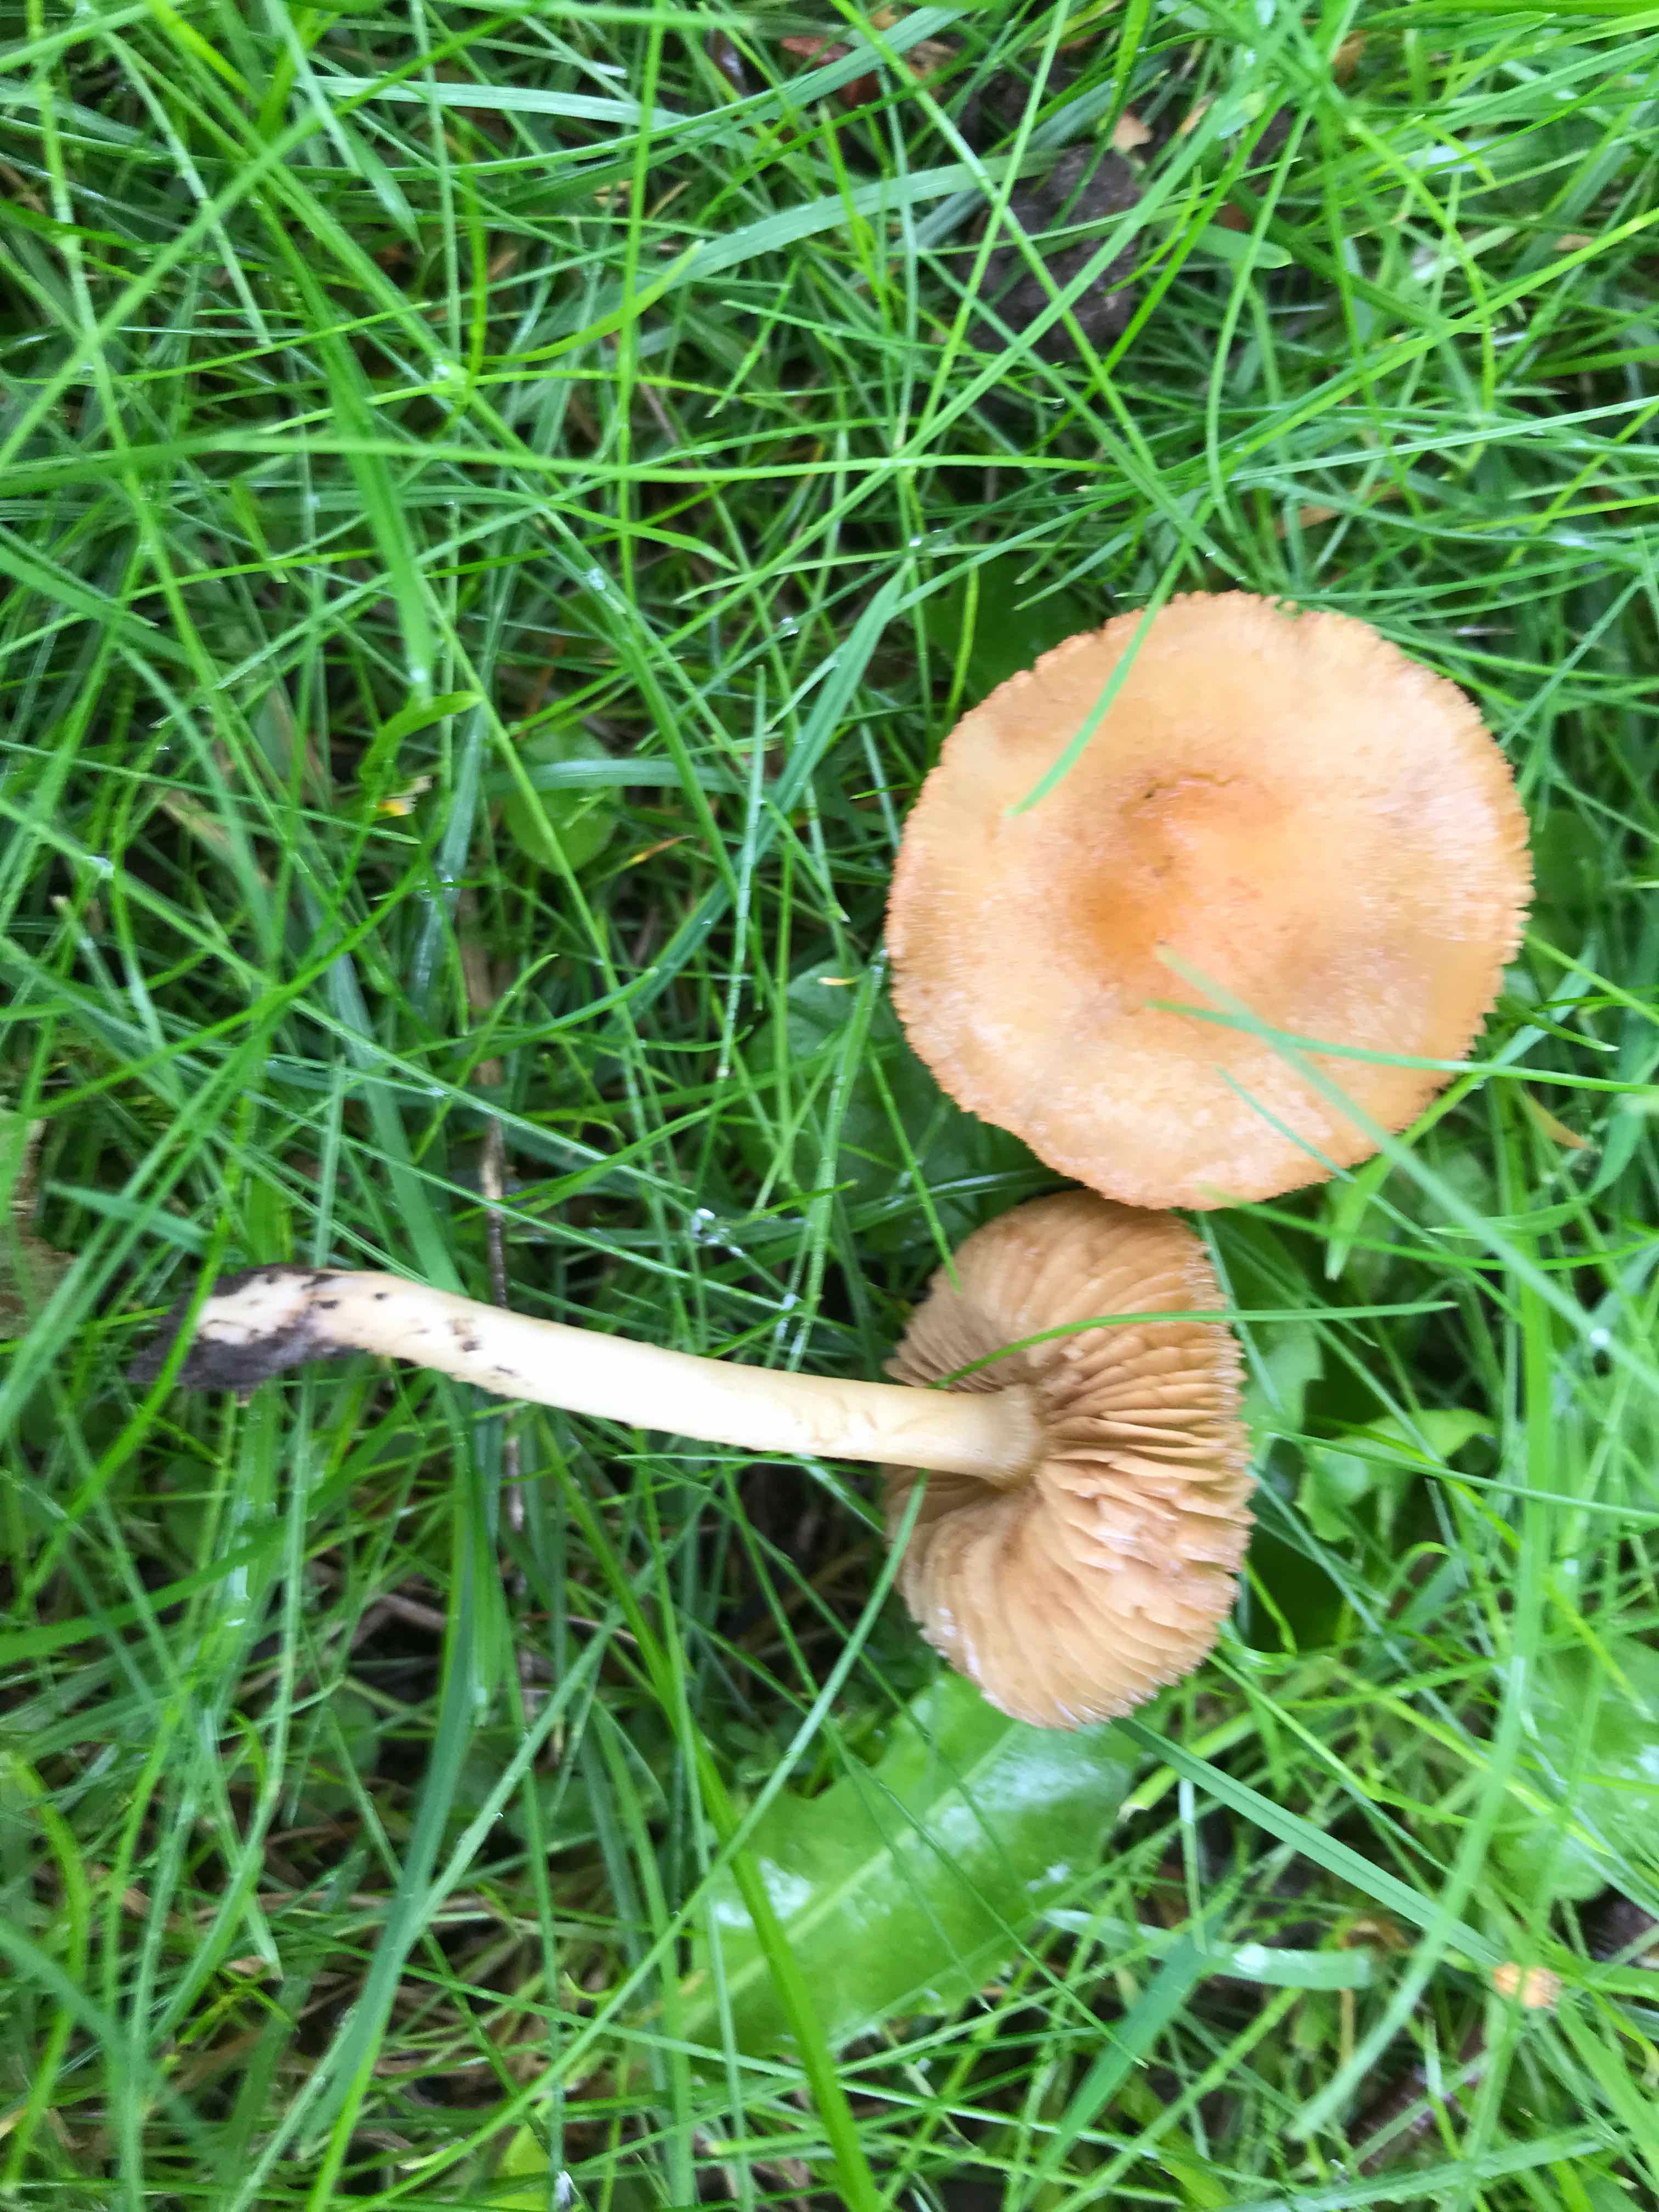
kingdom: Fungi
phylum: Basidiomycota
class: Agaricomycetes
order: Agaricales
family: Inocybaceae
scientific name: Inocybaceae
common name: trævlhatfamilien
